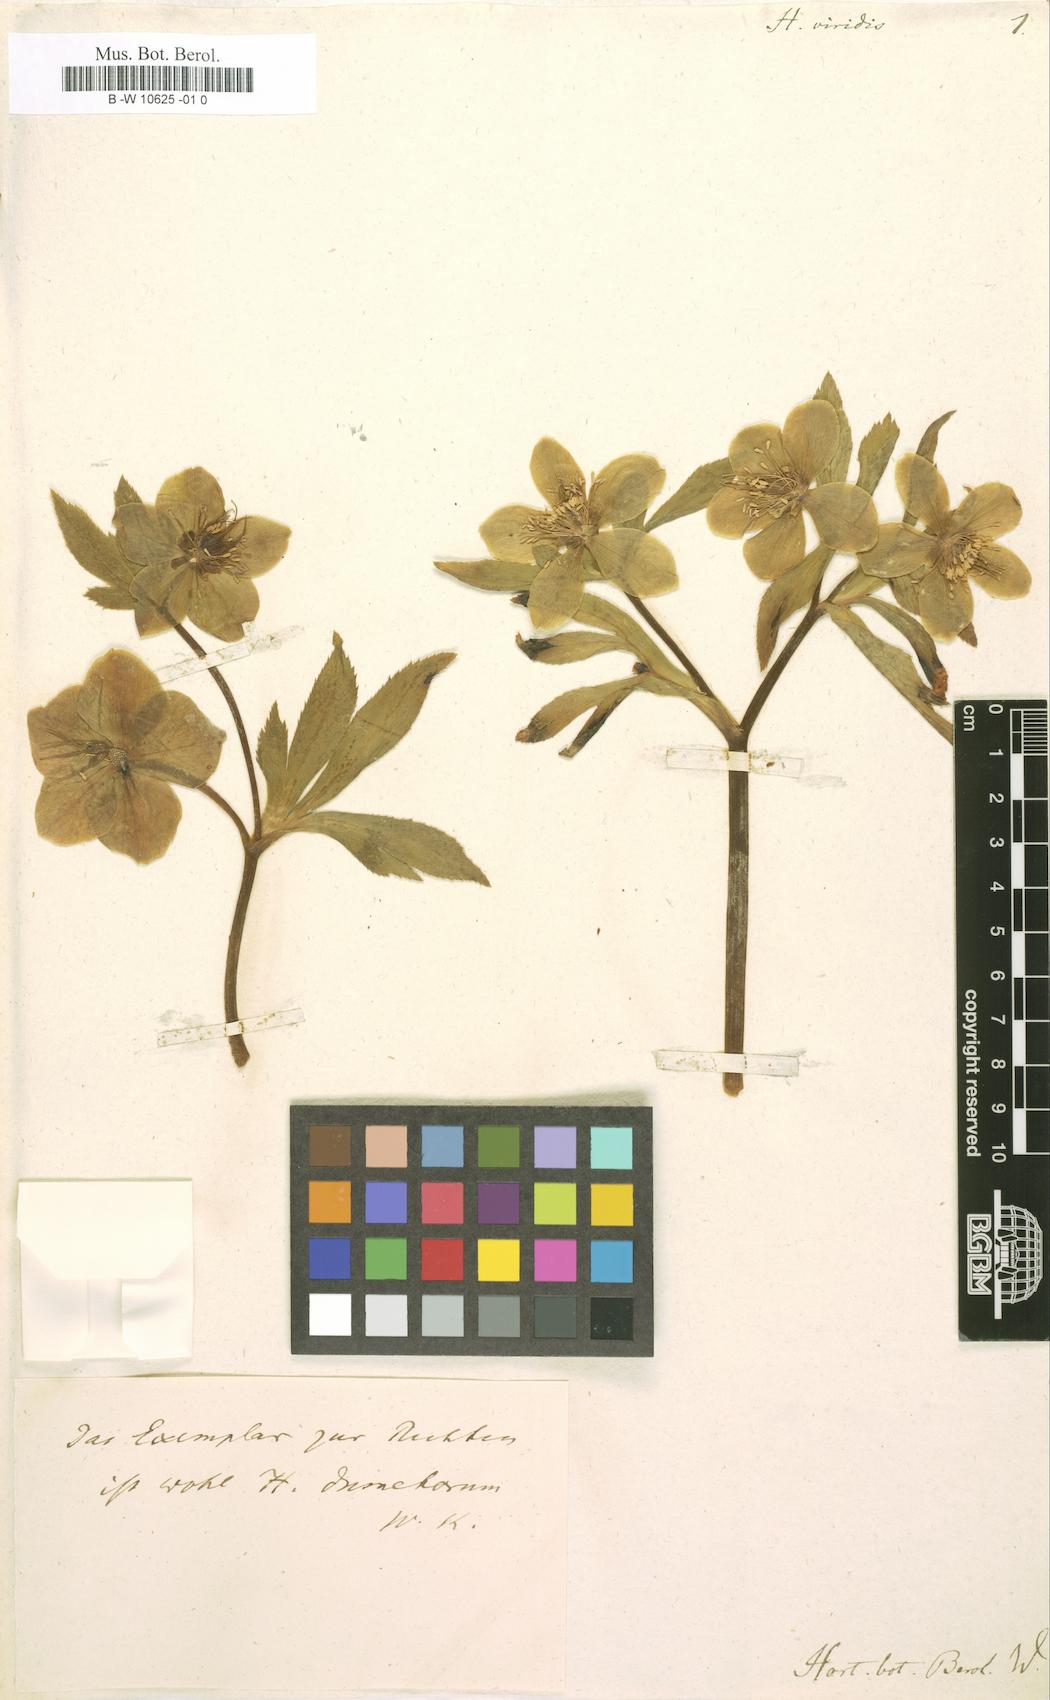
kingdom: Plantae
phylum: Tracheophyta
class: Magnoliopsida
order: Ranunculales
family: Ranunculaceae
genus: Helleborus
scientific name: Helleborus viridis
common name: Green hellebore
